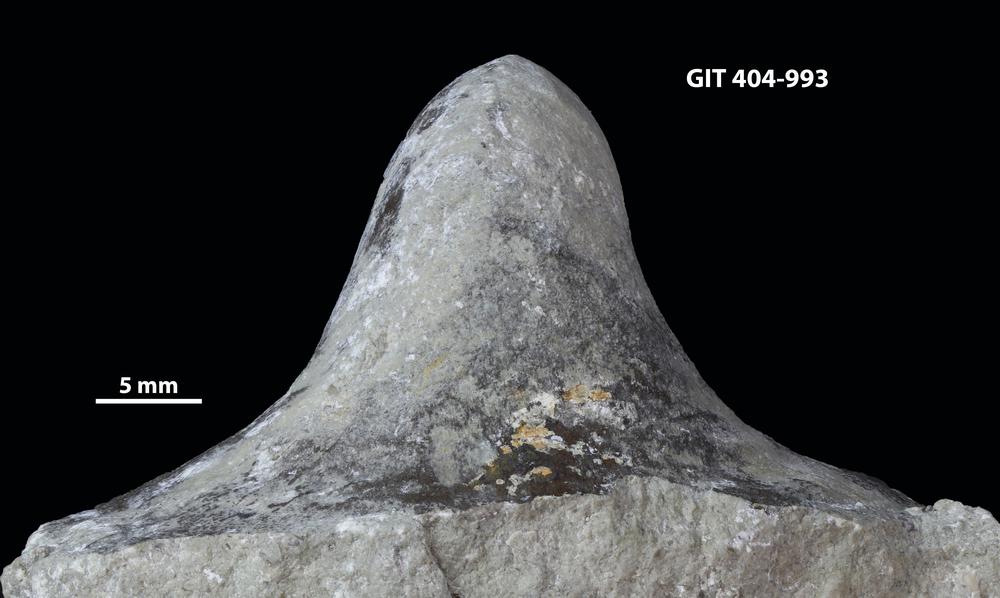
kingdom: Animalia
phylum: Mollusca
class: Gastropoda
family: Bucaniidae
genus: Salpingostoma
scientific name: Salpingostoma
